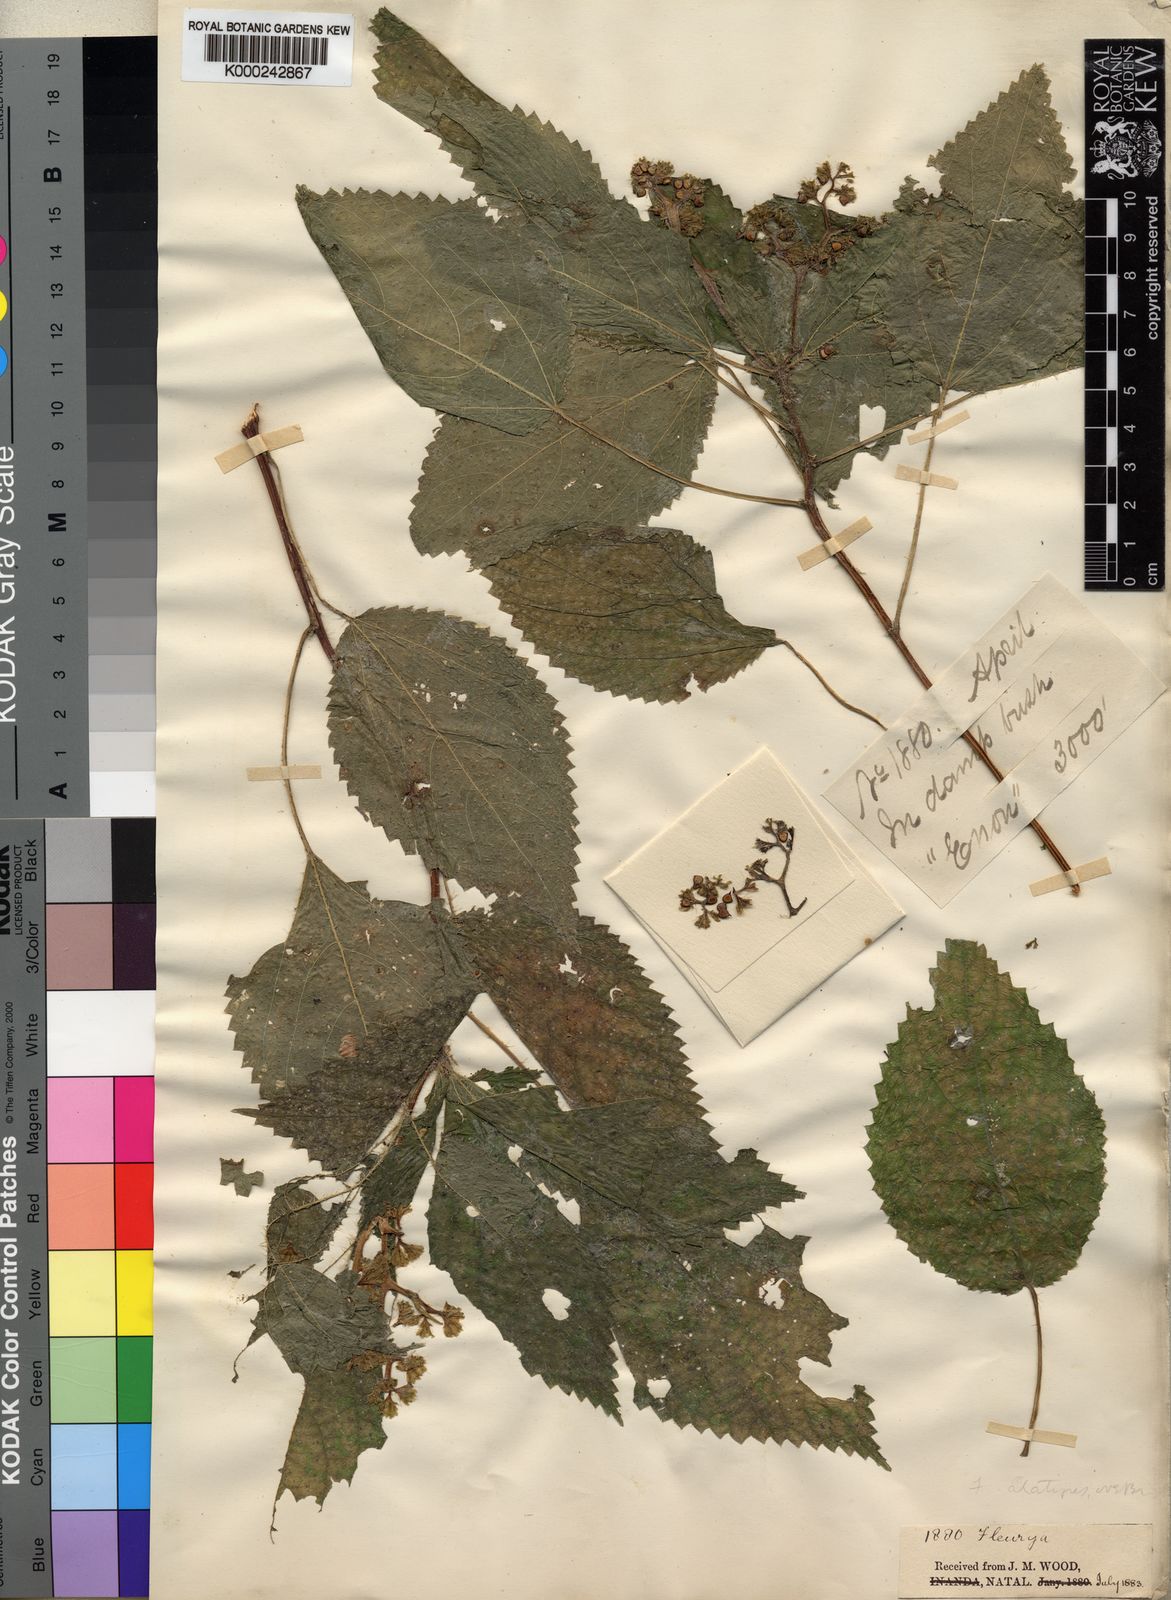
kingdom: Plantae
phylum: Tracheophyta
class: Magnoliopsida
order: Rosales
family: Urticaceae
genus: Laportea
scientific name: Laportea alatipes
